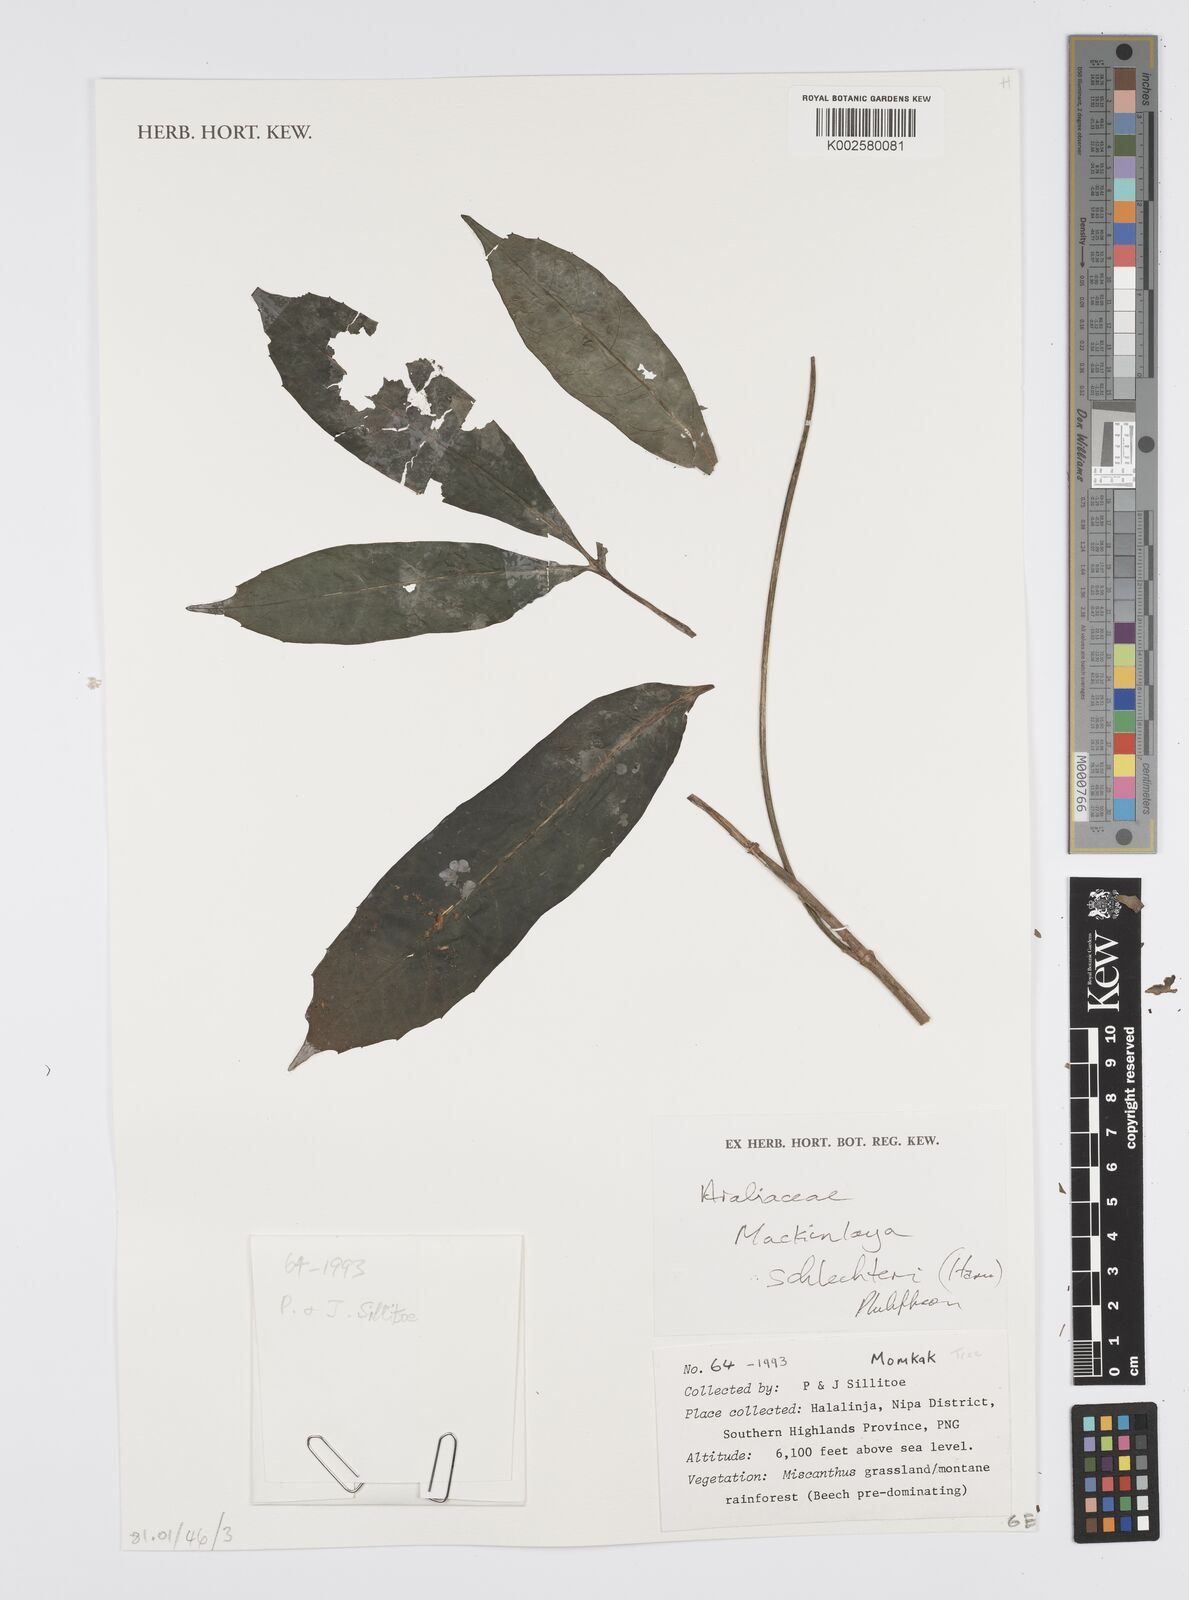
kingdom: Plantae
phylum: Tracheophyta
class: Magnoliopsida
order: Apiales
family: Apiaceae
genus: Mackinlaya
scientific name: Mackinlaya schlechteri
